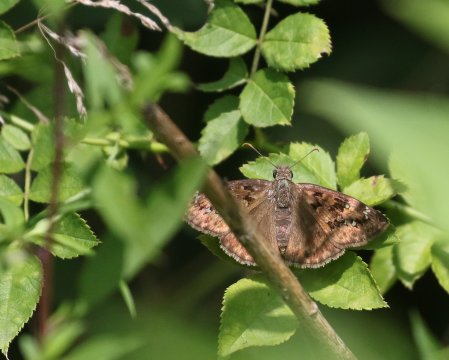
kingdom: Animalia
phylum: Arthropoda
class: Insecta
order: Lepidoptera
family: Hesperiidae
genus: Gesta
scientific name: Gesta
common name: Horace's Duskywing
